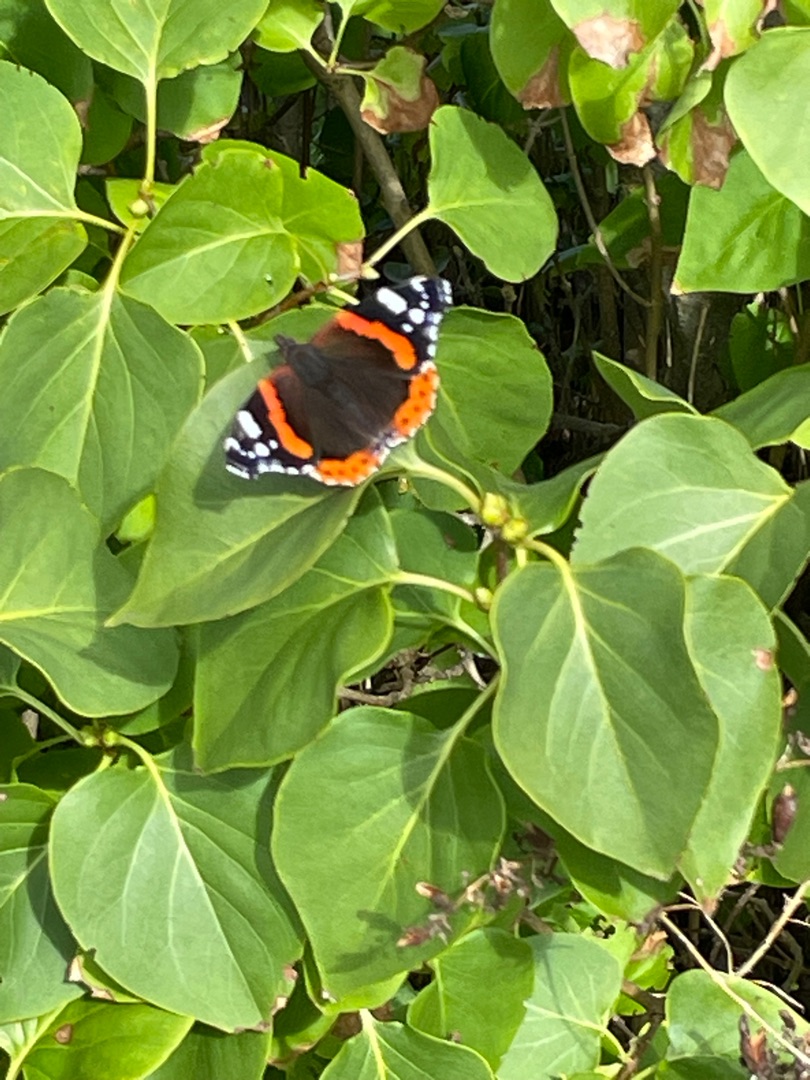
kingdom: Animalia
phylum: Arthropoda
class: Insecta
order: Lepidoptera
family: Nymphalidae
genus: Vanessa
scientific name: Vanessa atalanta
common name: Admiral
